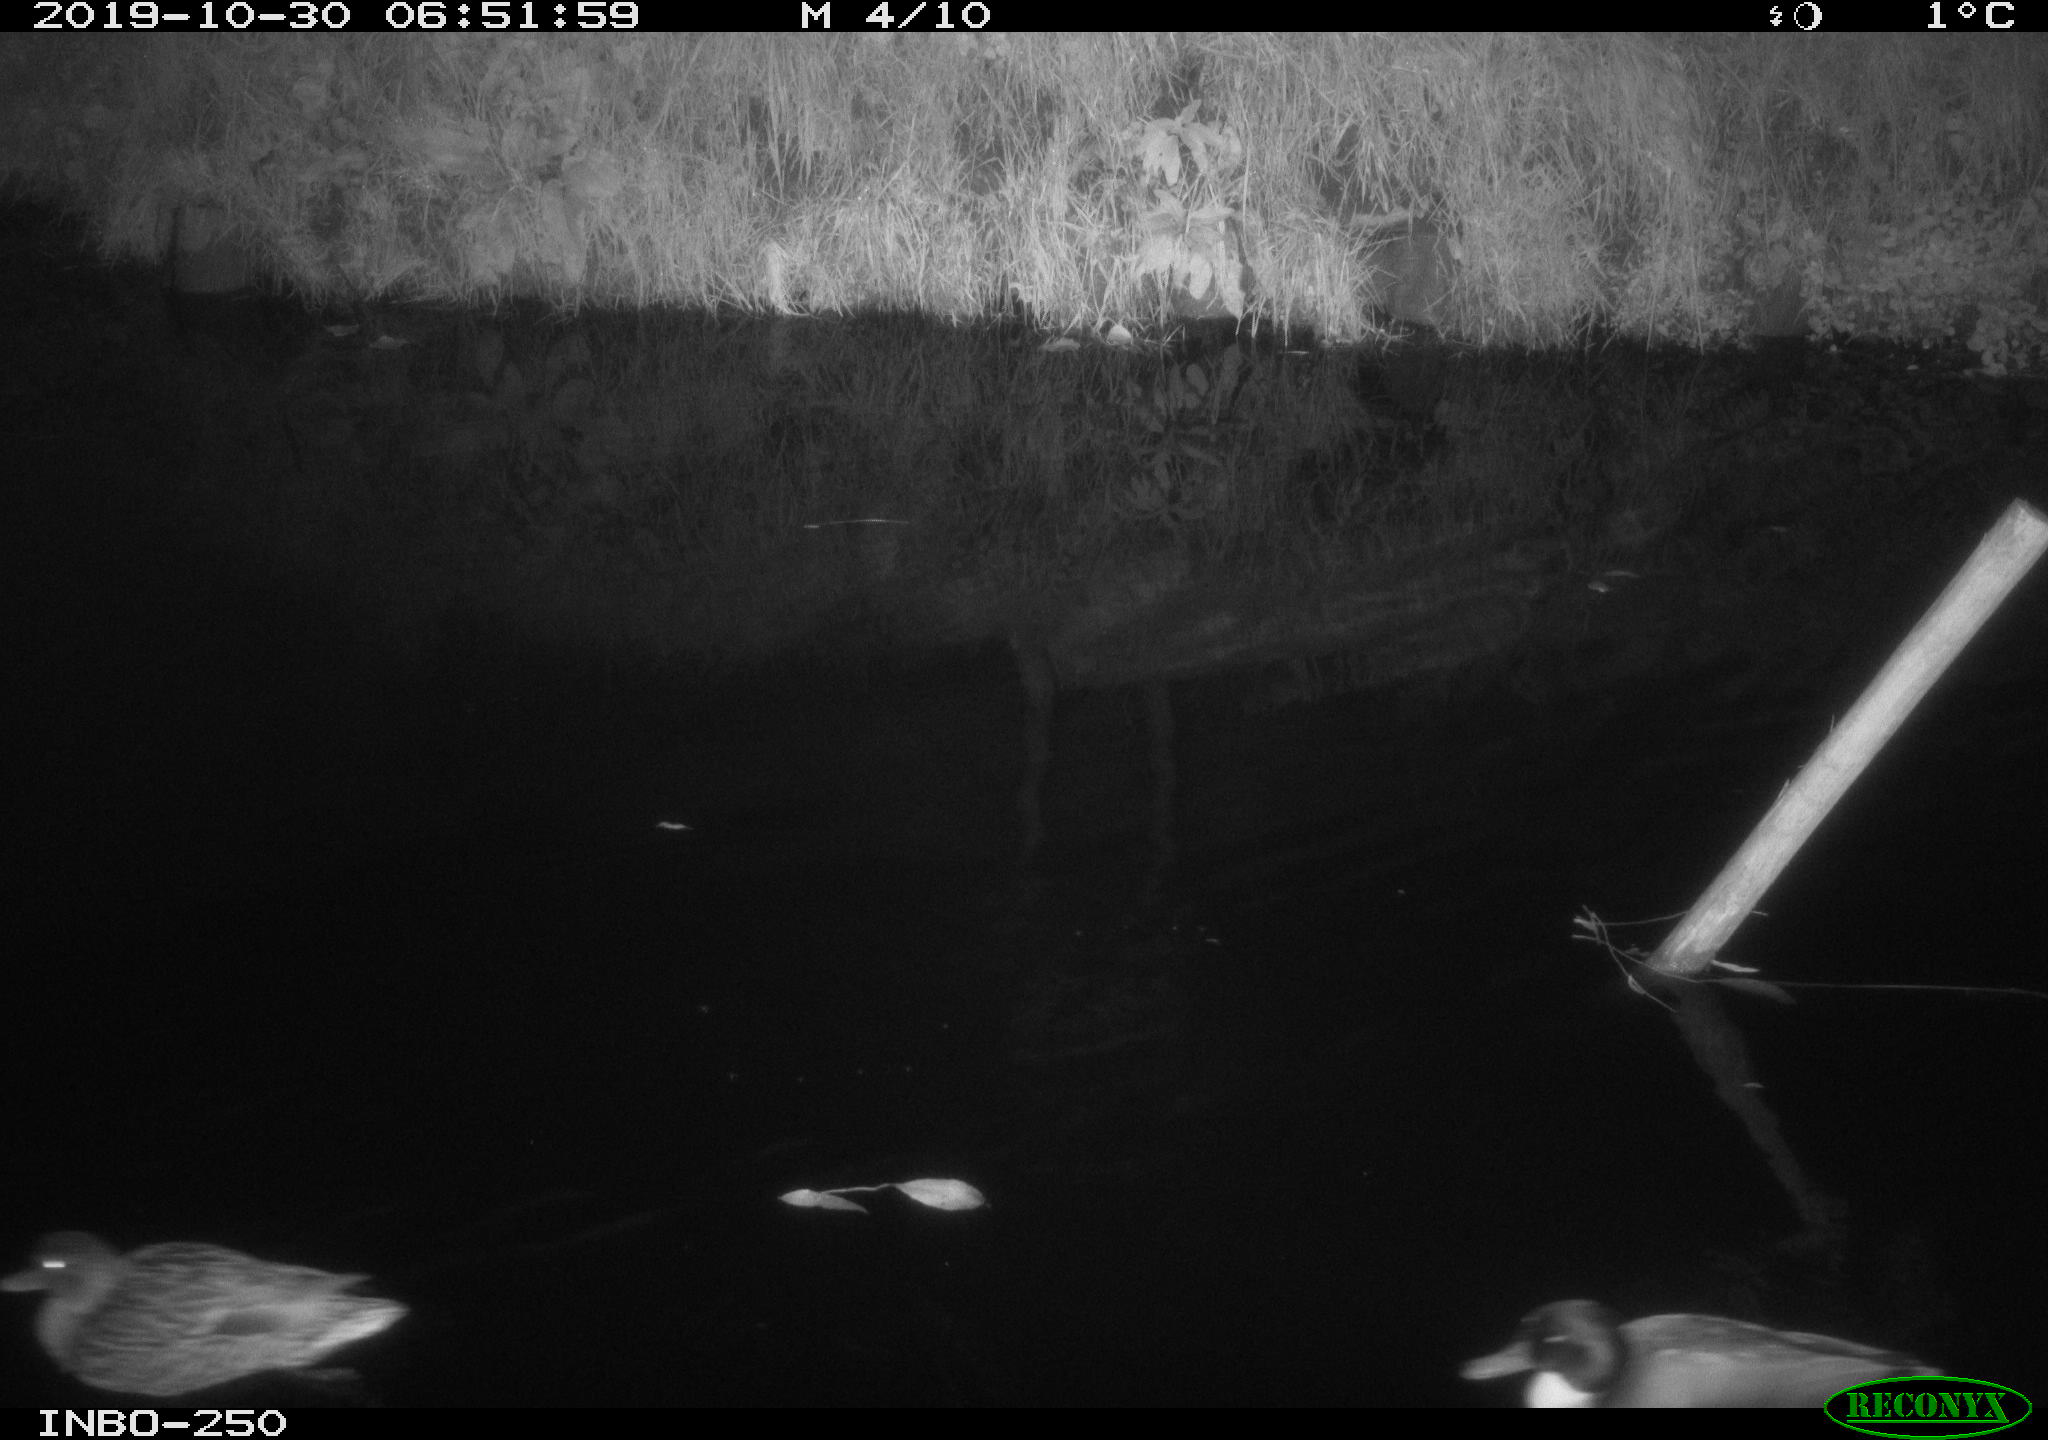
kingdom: Animalia
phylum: Chordata
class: Aves
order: Anseriformes
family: Anatidae
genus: Anas
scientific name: Anas platyrhynchos
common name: Mallard
